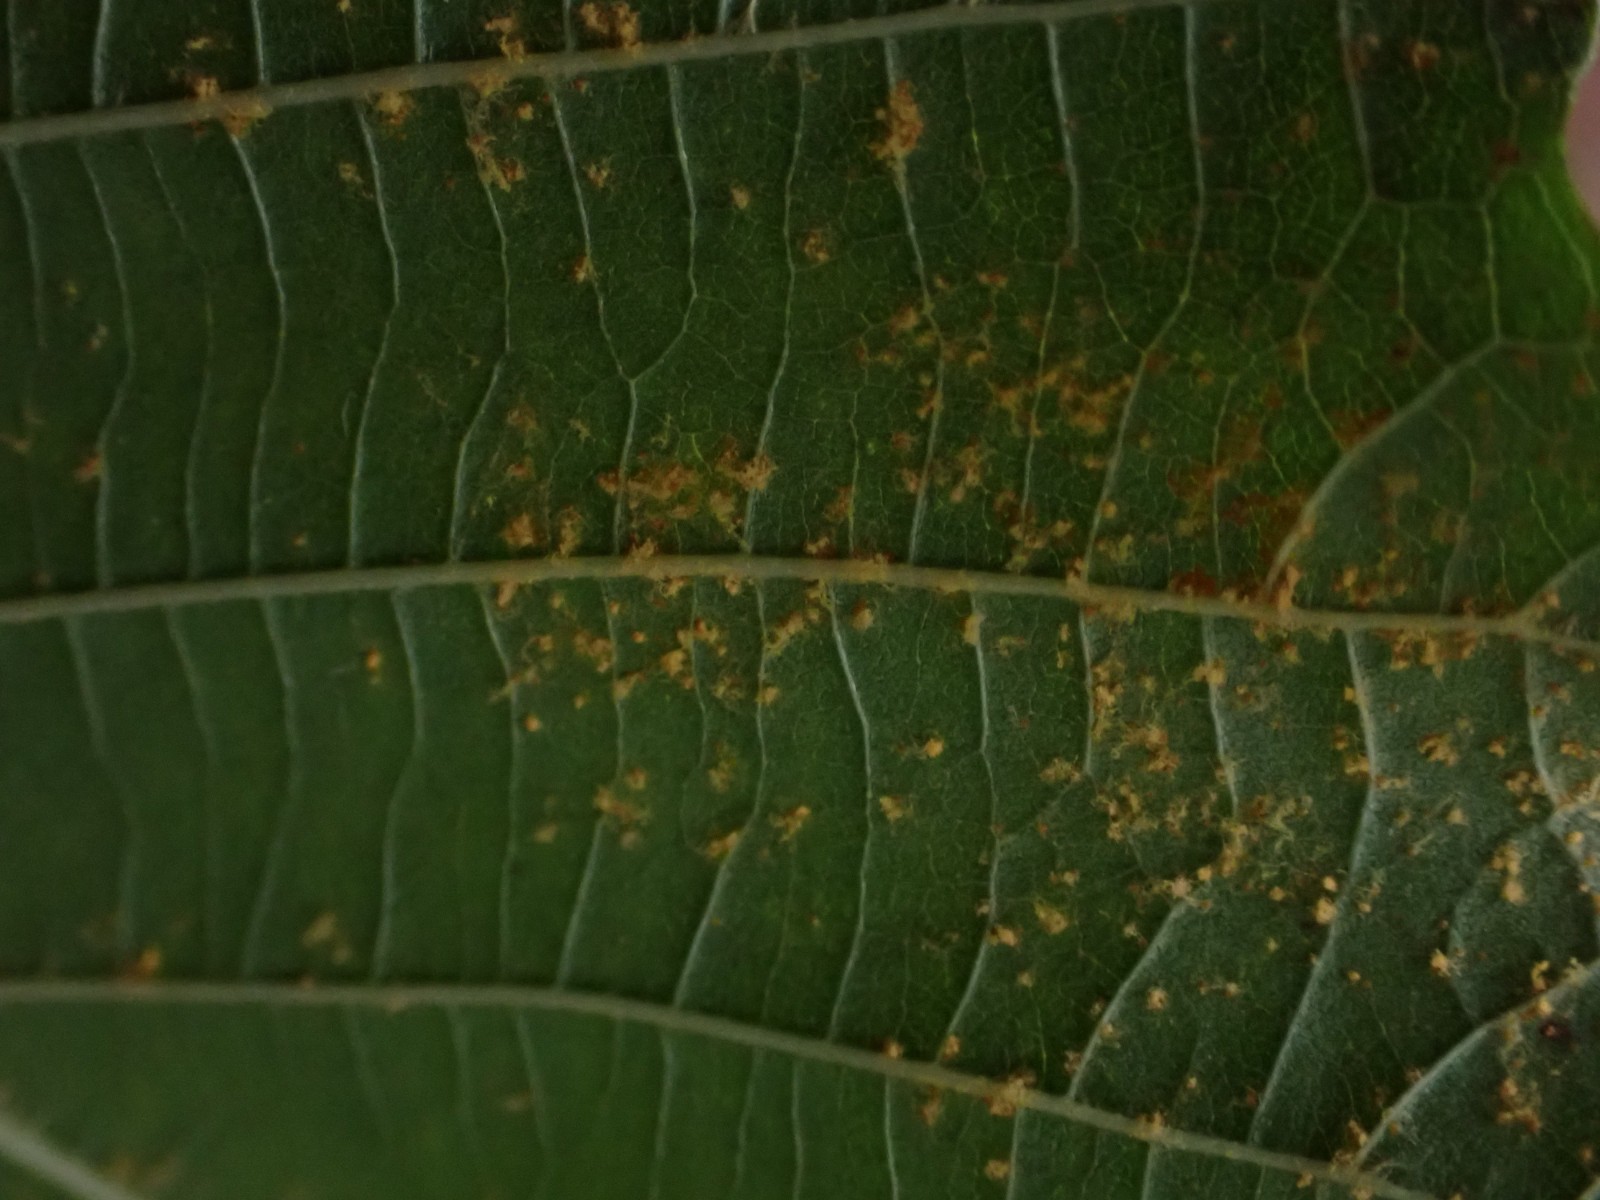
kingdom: Fungi
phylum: Basidiomycota
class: Pucciniomycetes
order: Pucciniales
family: Pucciniastraceae
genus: Melampsoridium
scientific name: Melampsoridium
